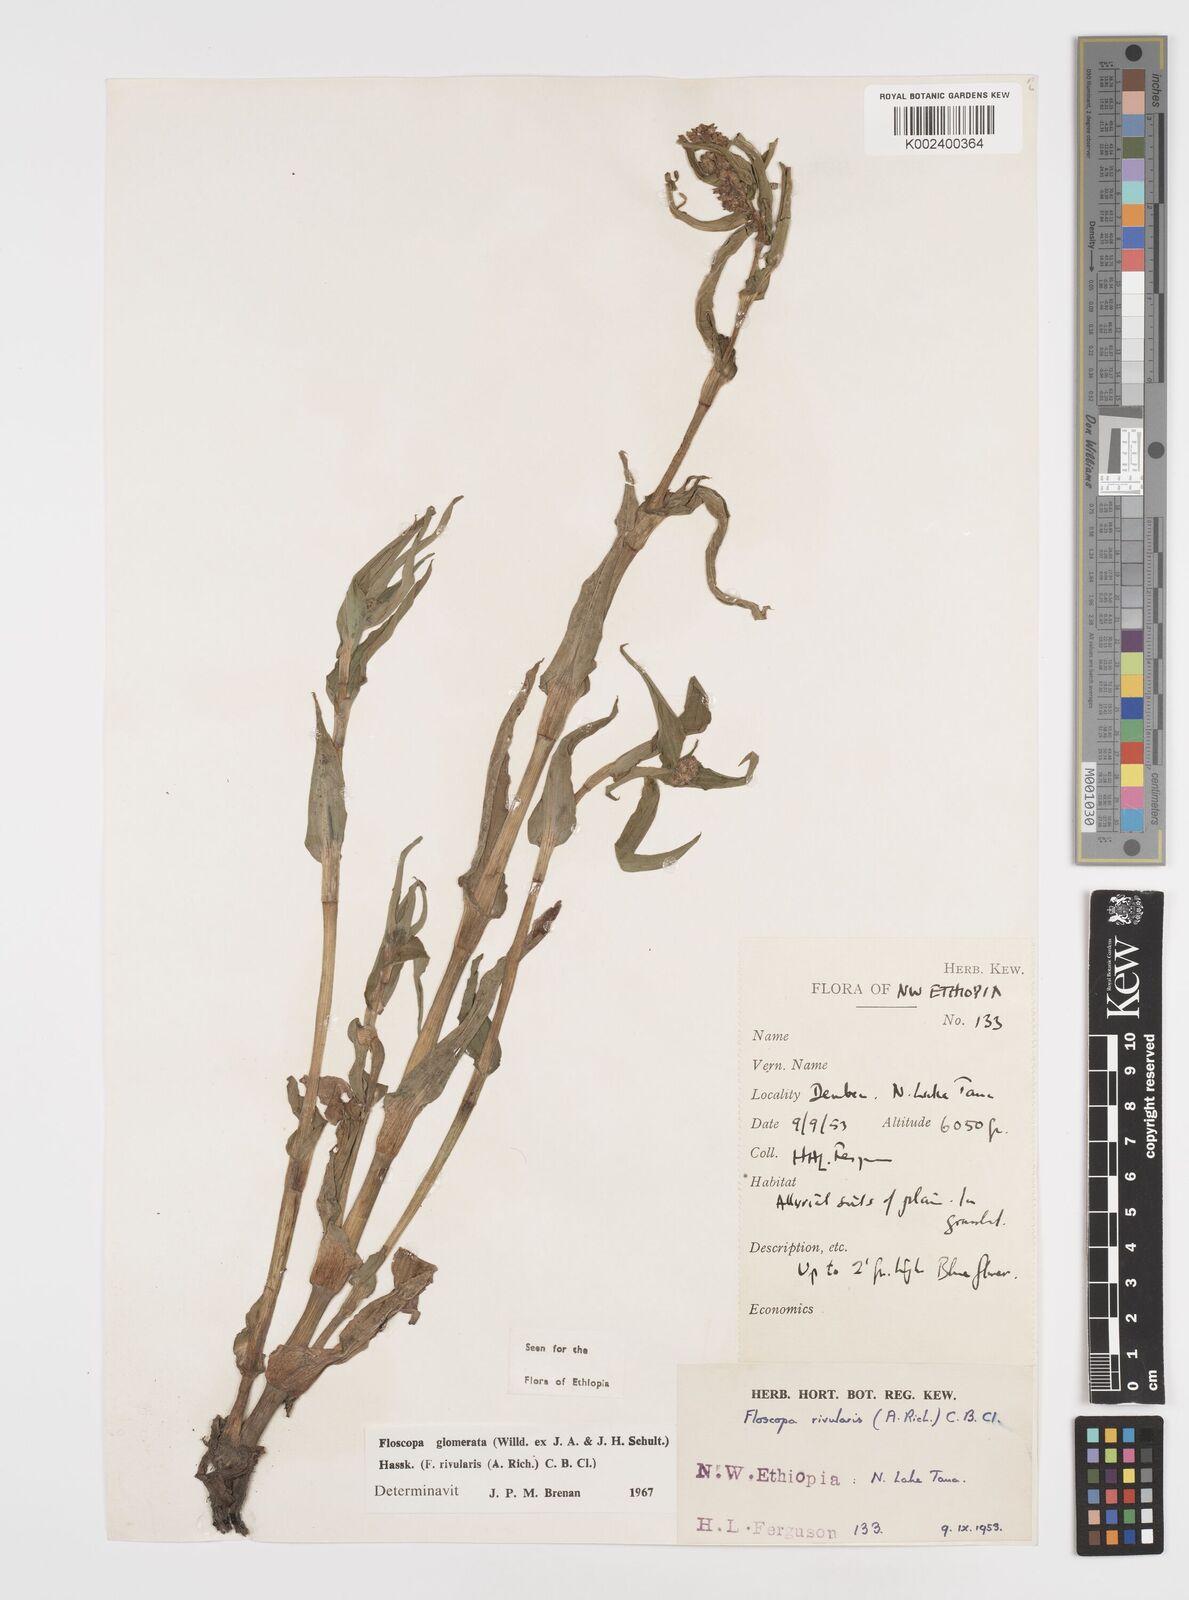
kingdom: Plantae
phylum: Tracheophyta
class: Liliopsida
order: Commelinales
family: Commelinaceae
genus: Floscopa
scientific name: Floscopa glomerata
